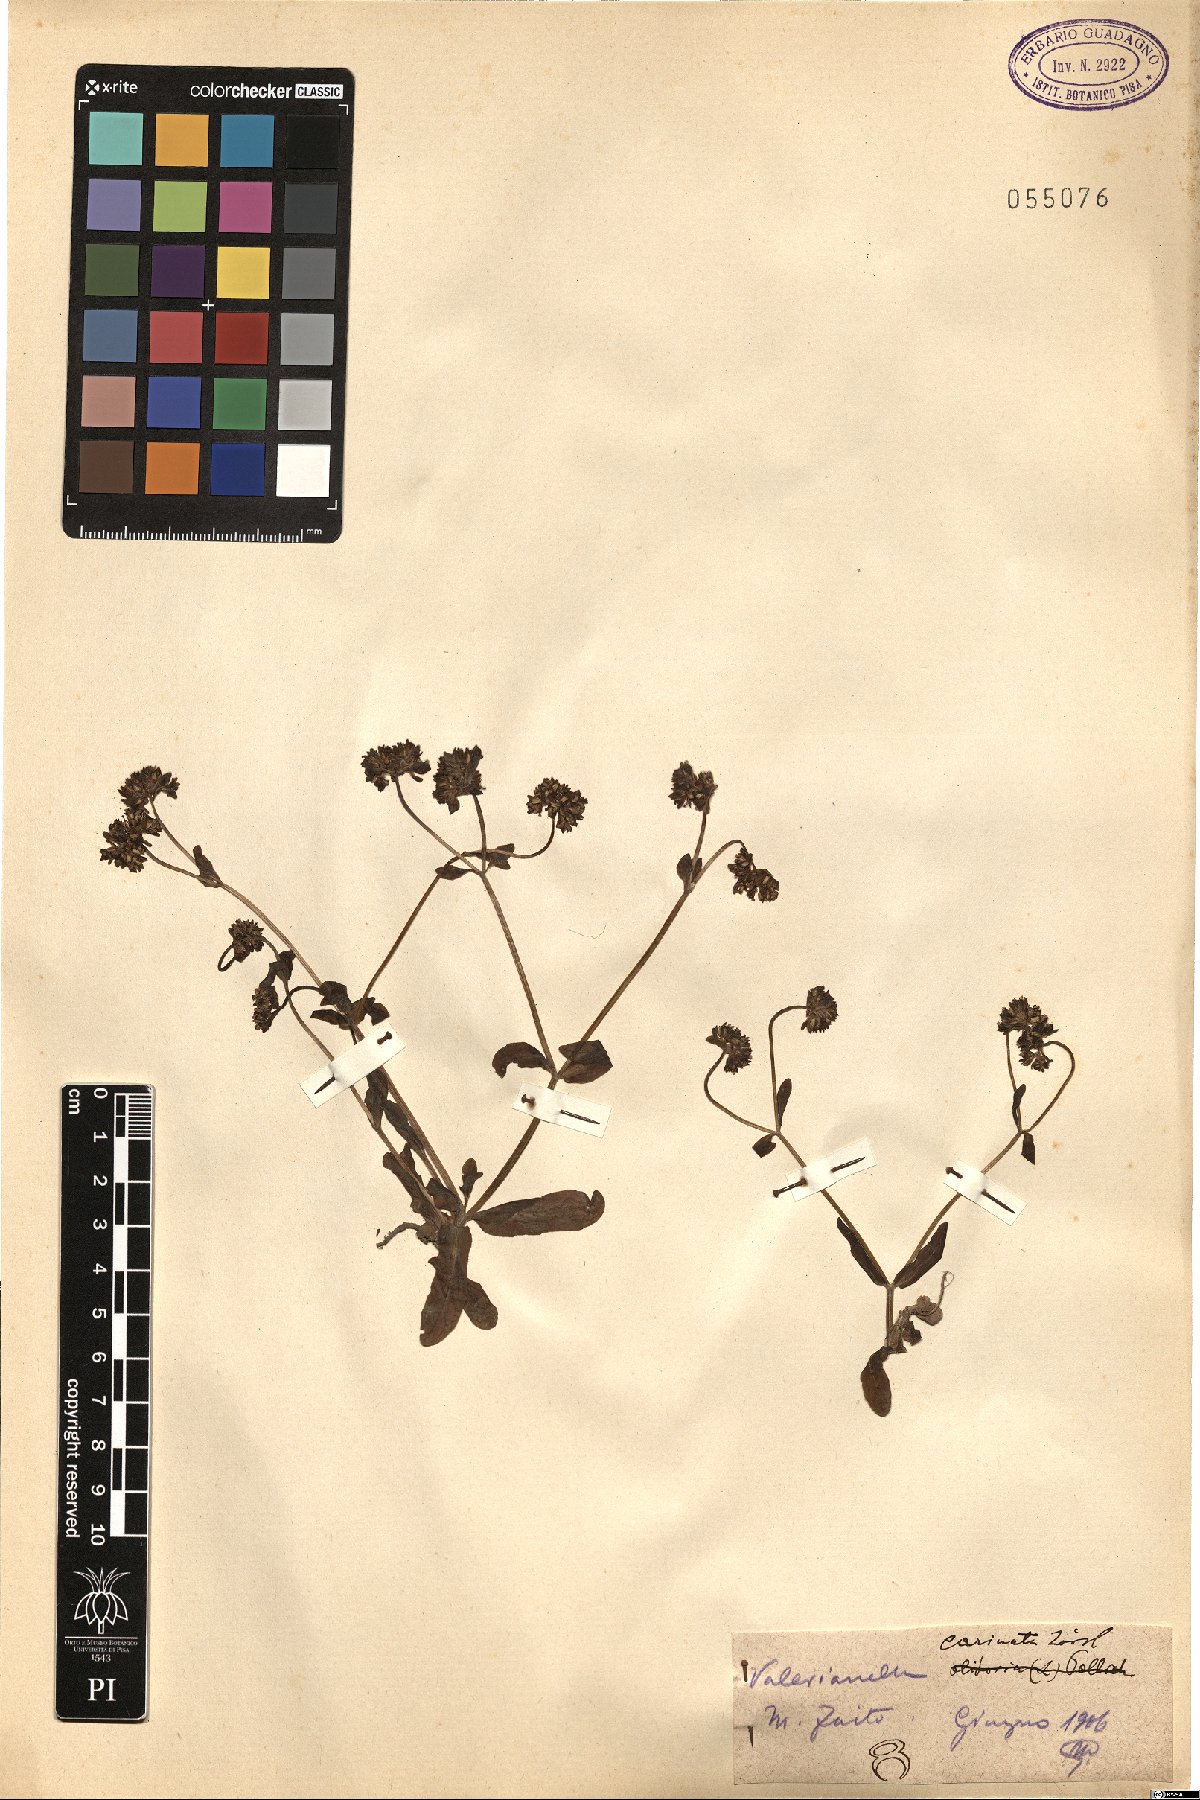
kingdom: Plantae
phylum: Tracheophyta
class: Magnoliopsida
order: Dipsacales
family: Caprifoliaceae
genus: Valerianella
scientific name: Valerianella carinata
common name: Keeled-fruited cornsalad
